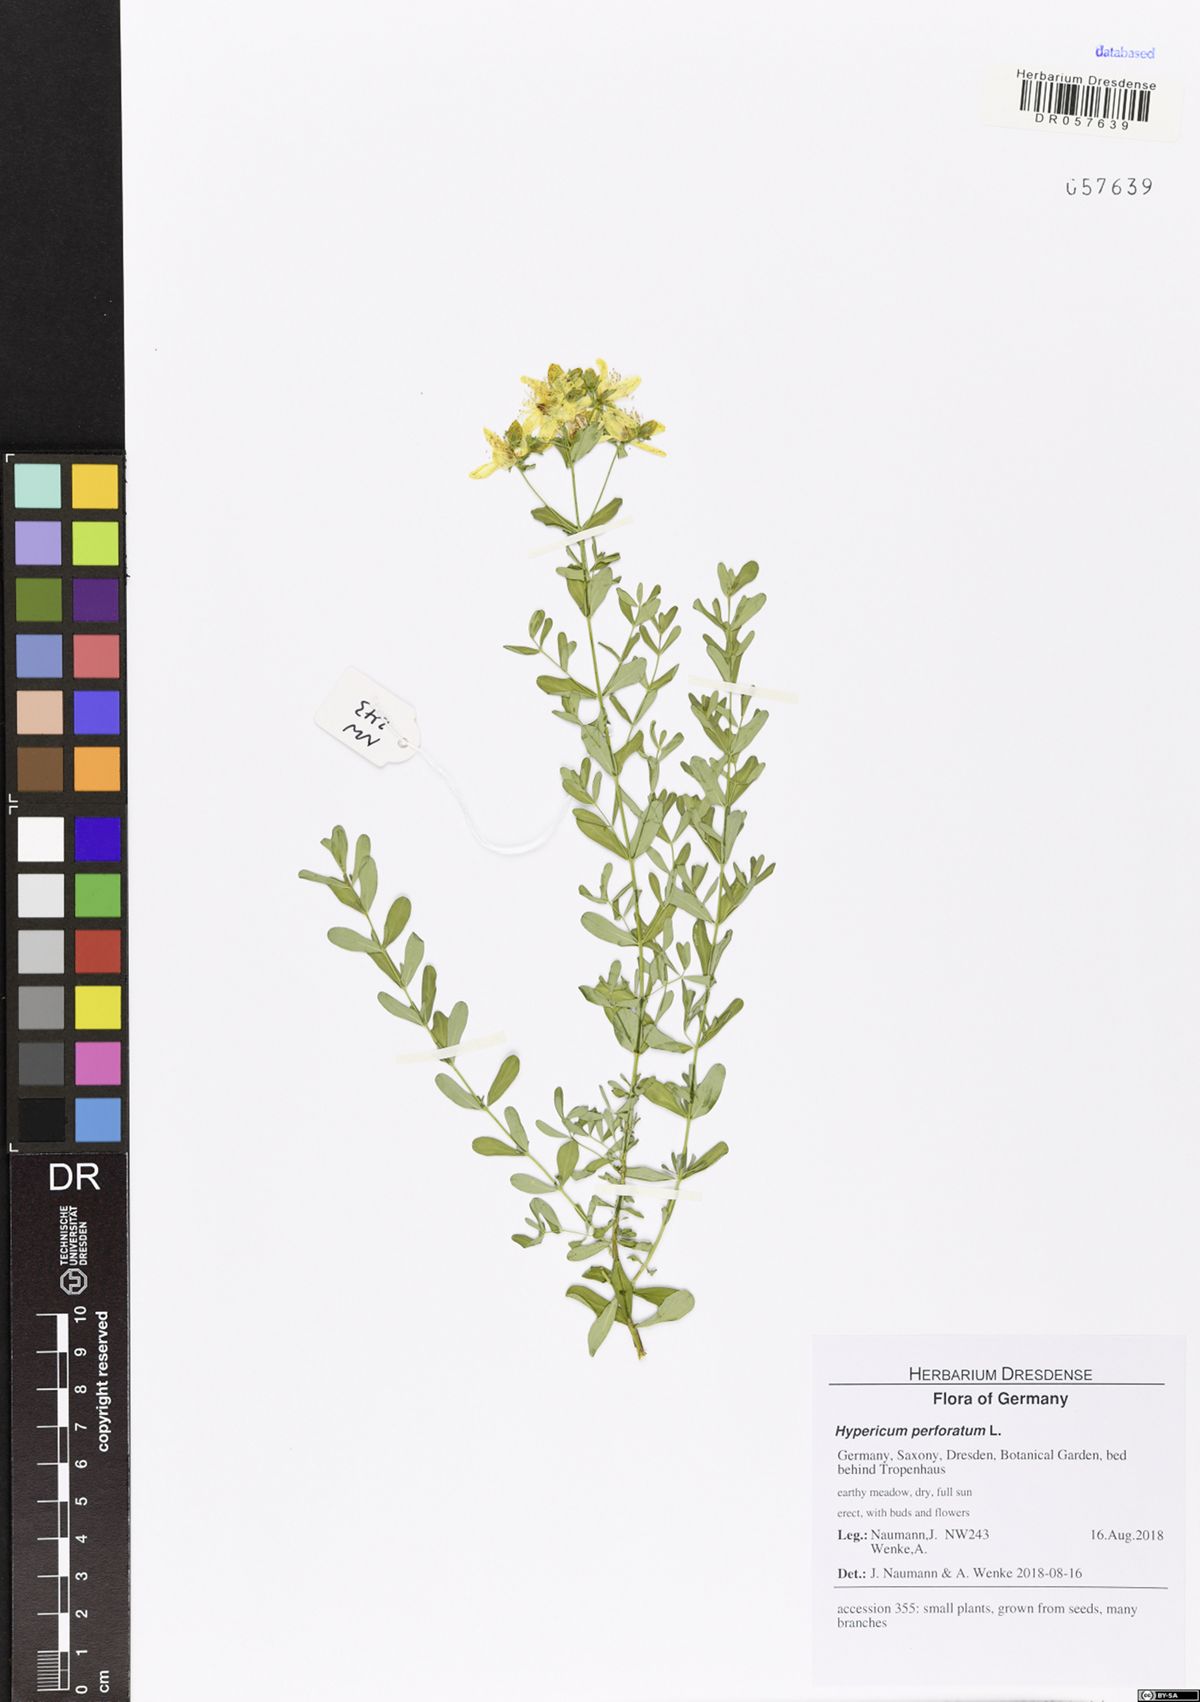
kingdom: Plantae
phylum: Tracheophyta
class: Magnoliopsida
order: Malpighiales
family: Hypericaceae
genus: Hypericum
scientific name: Hypericum perforatum
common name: Common st. johnswort
